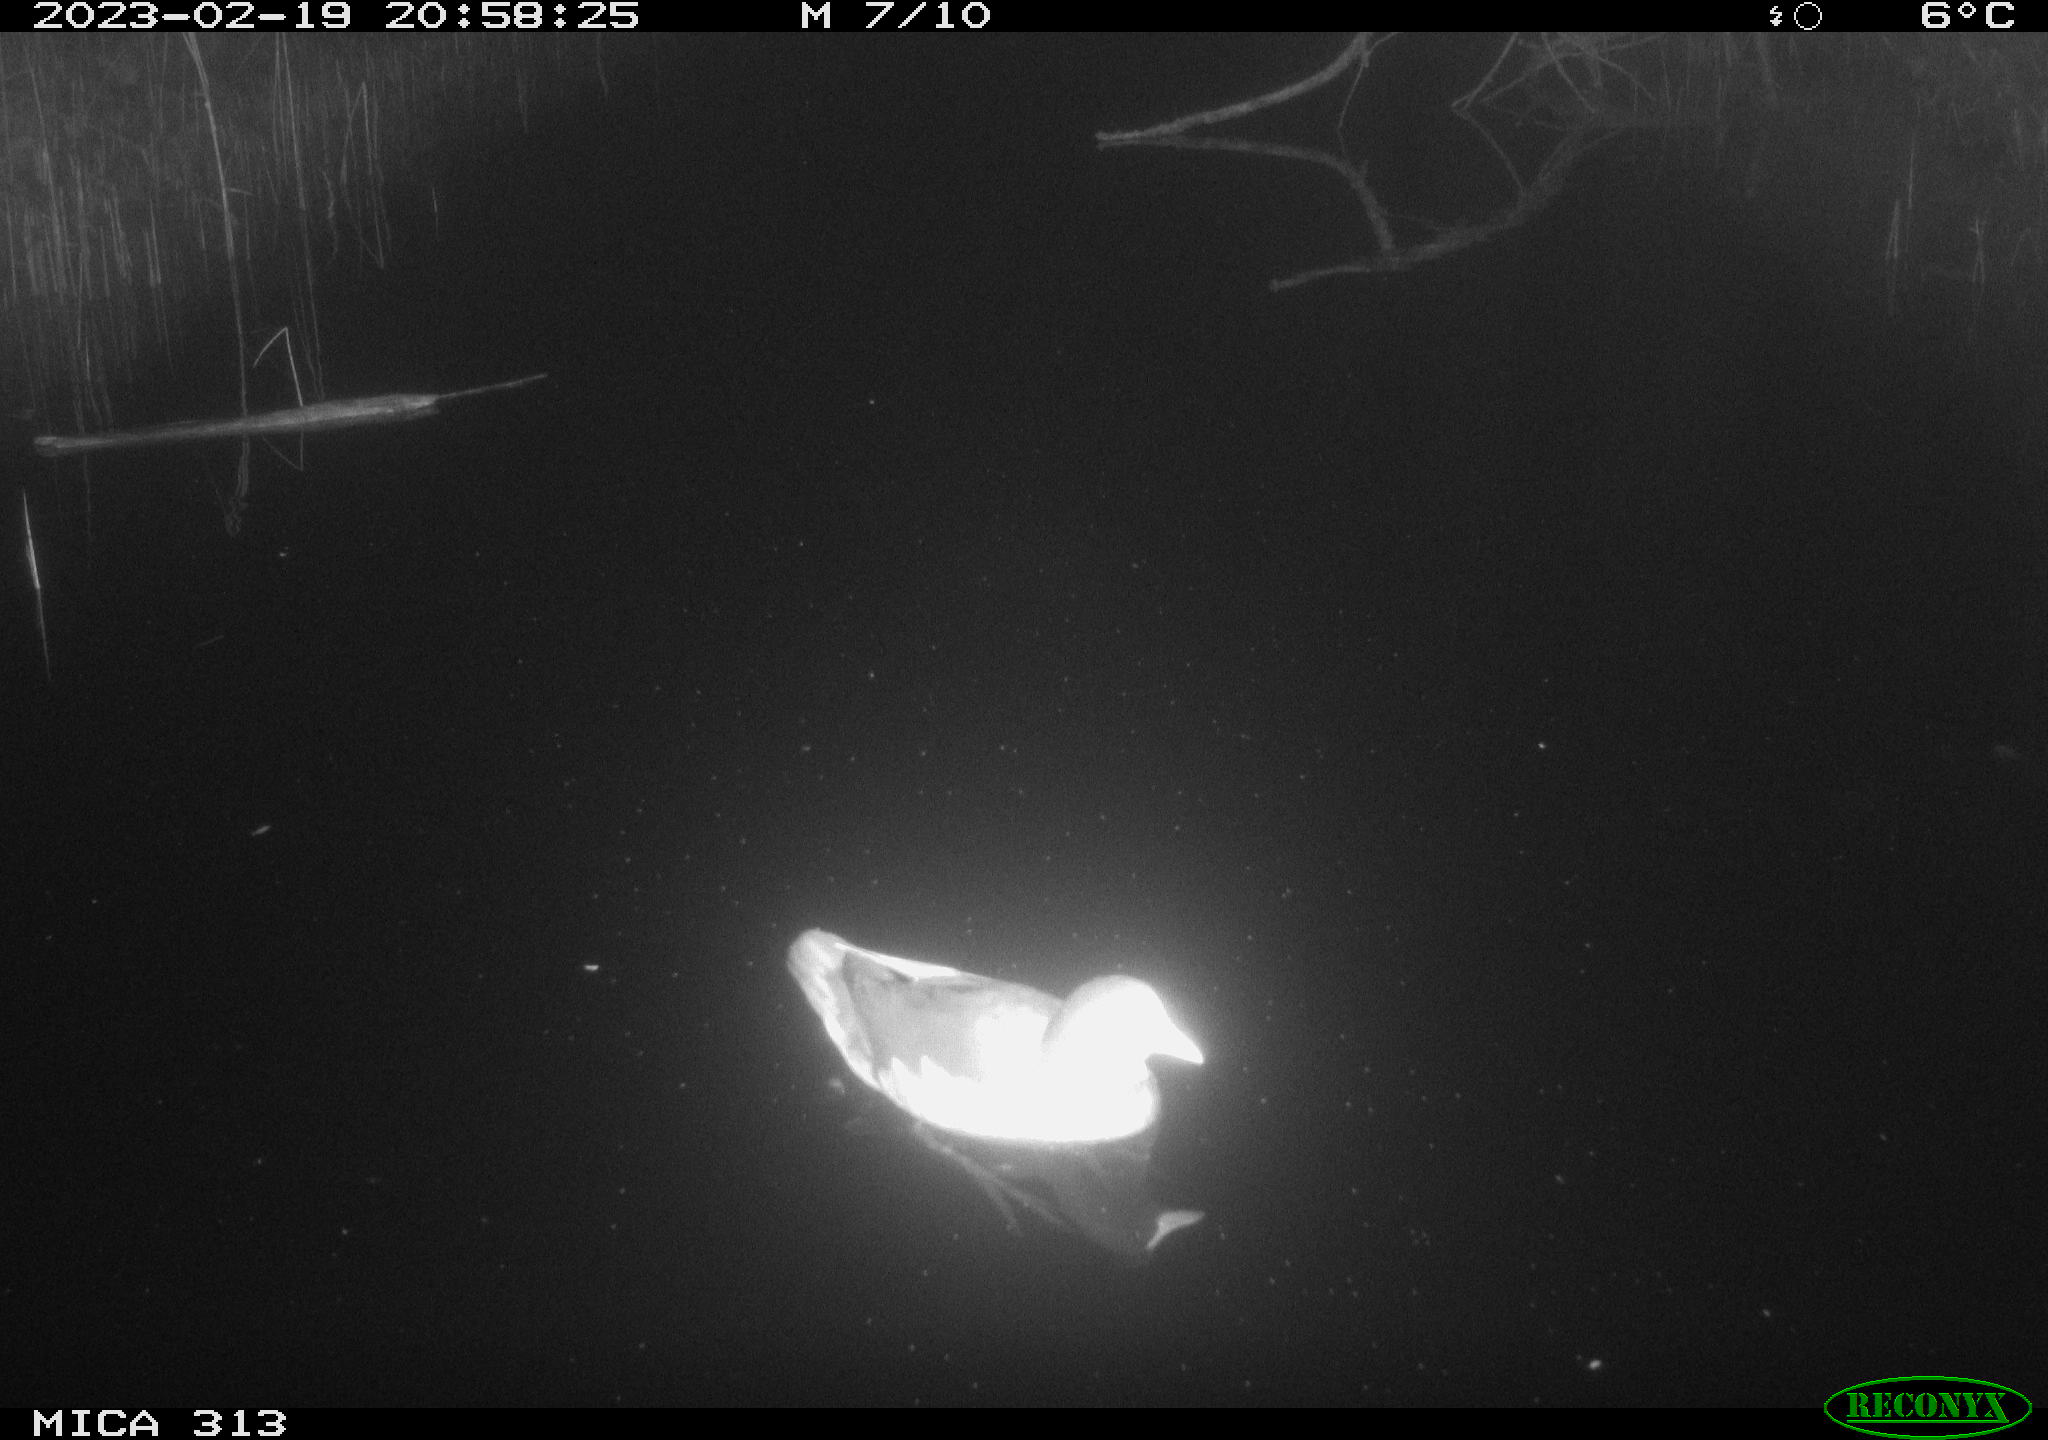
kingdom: Animalia
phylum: Chordata
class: Aves
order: Gruiformes
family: Rallidae
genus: Gallinula
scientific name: Gallinula chloropus
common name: Common moorhen
